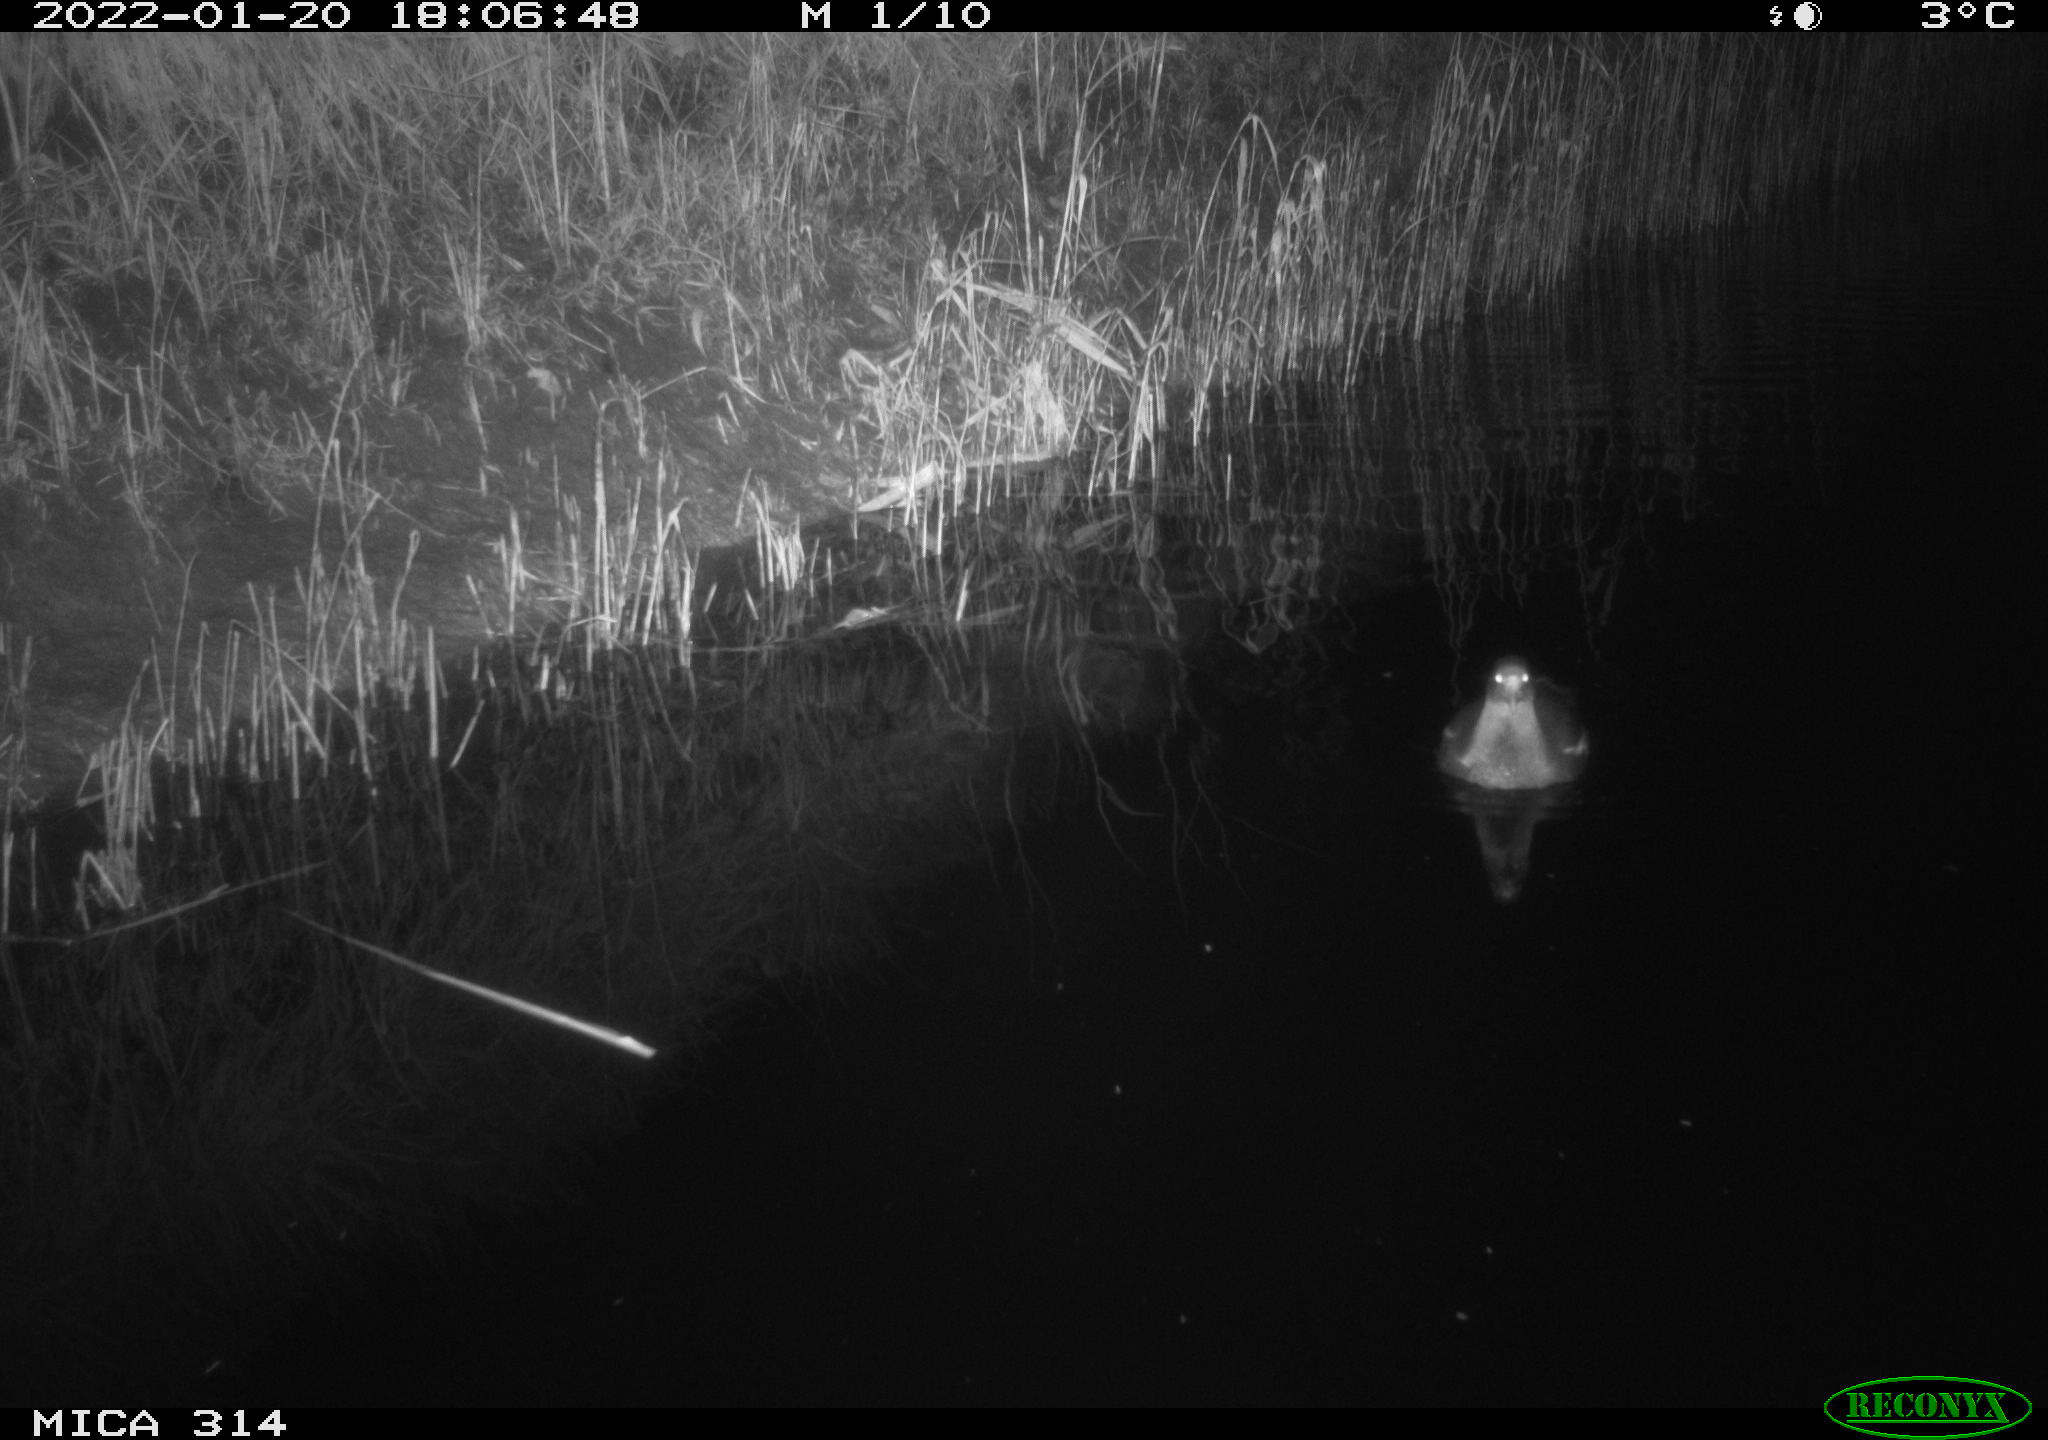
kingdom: Animalia
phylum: Chordata
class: Aves
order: Gruiformes
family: Rallidae
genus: Fulica
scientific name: Fulica atra
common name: Eurasian coot
